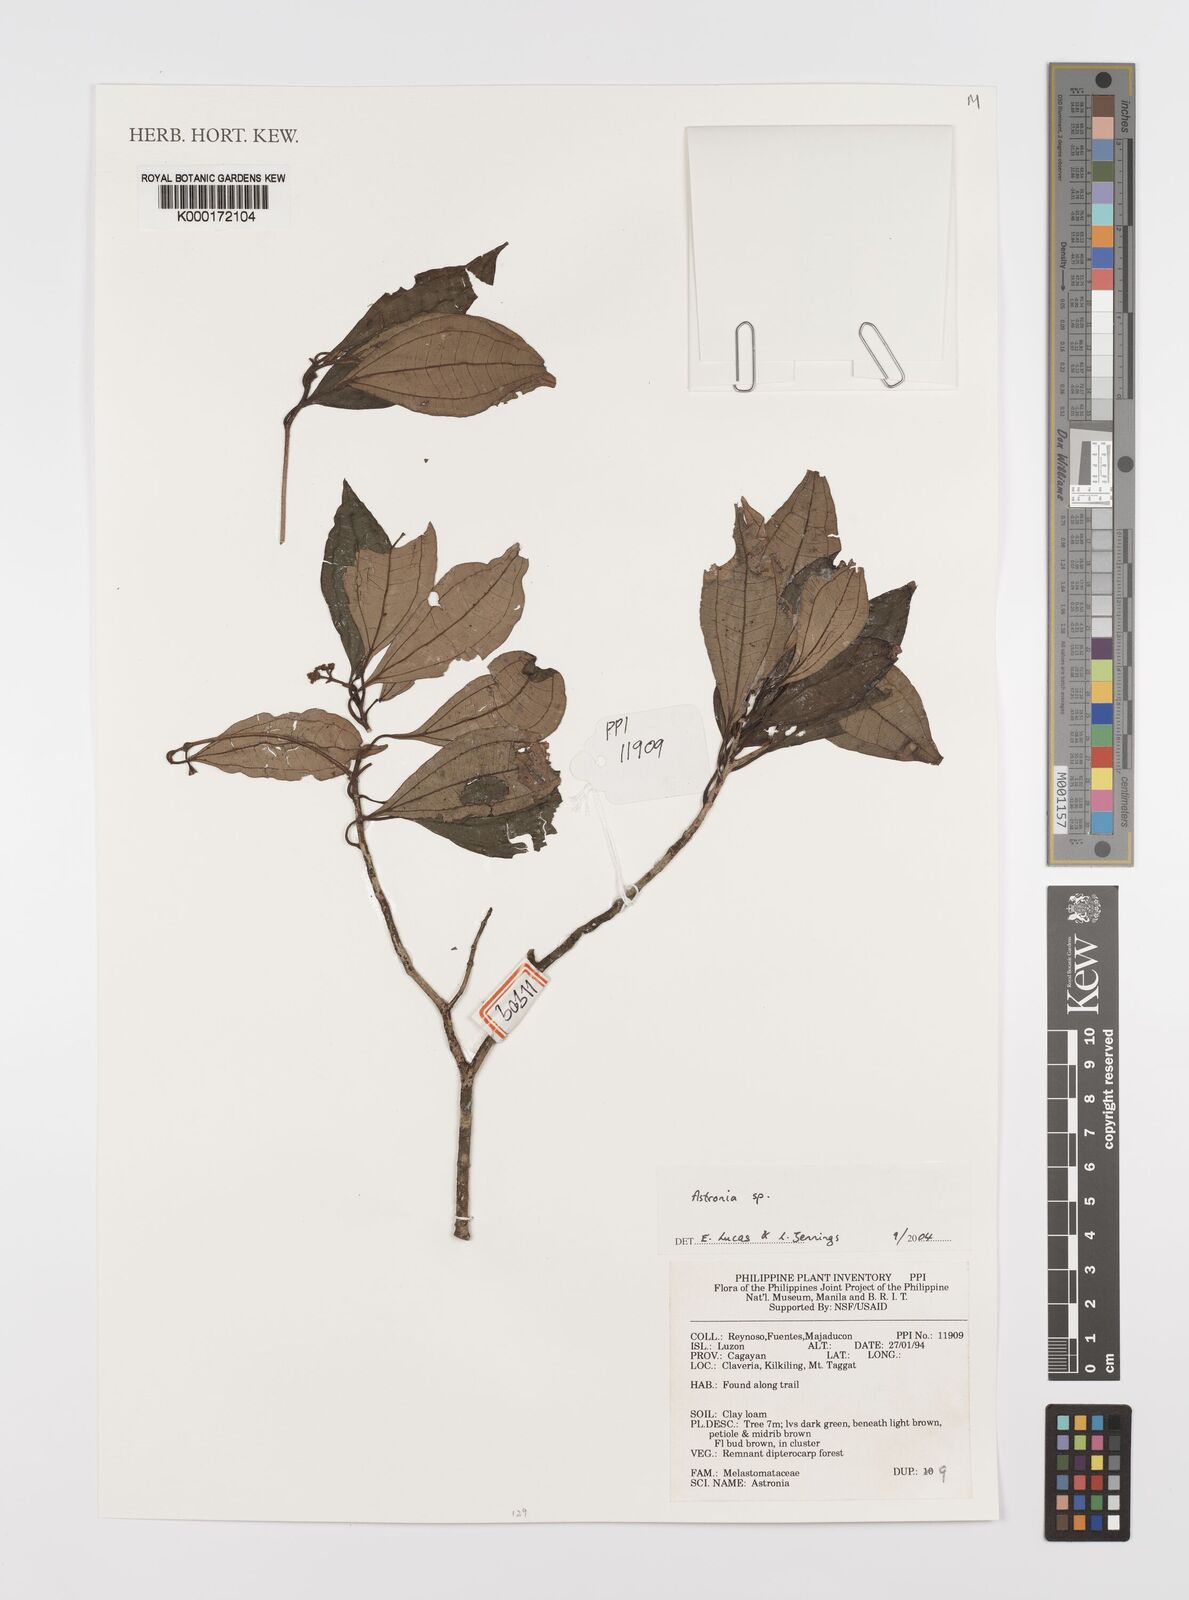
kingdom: Plantae
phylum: Tracheophyta
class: Magnoliopsida
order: Myrtales
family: Melastomataceae
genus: Astronia
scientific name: Astronia
